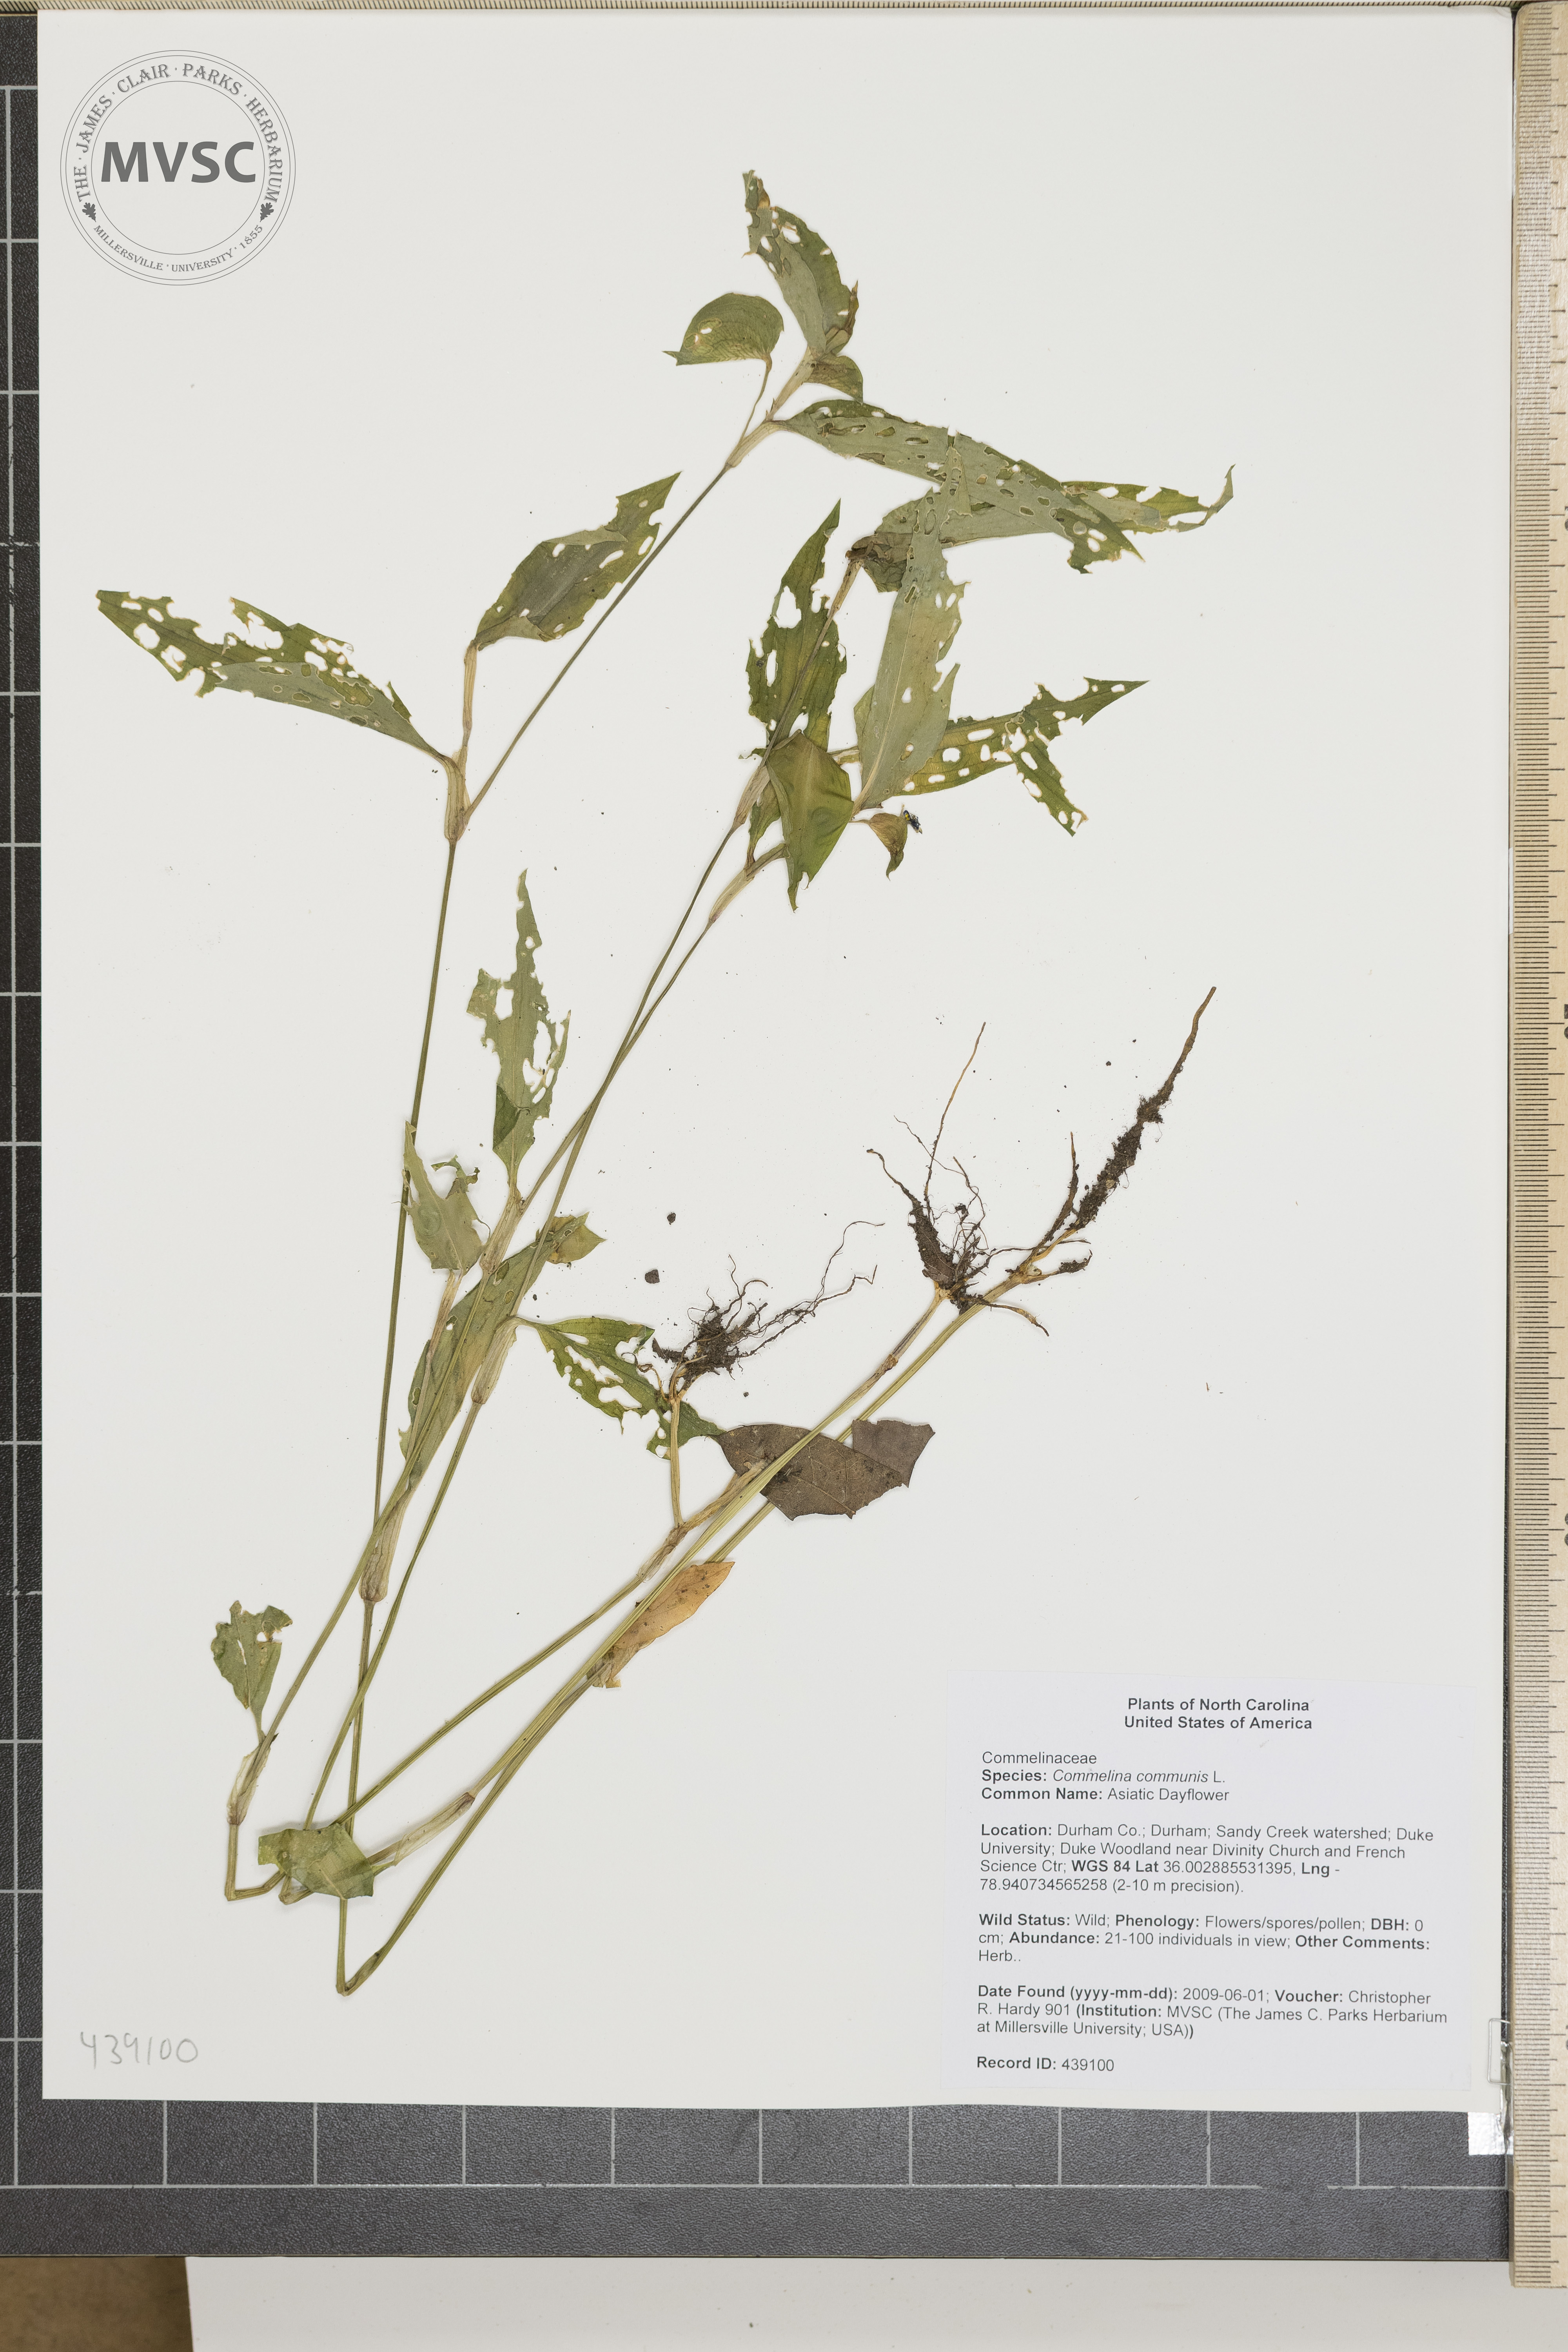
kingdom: Plantae
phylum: Tracheophyta
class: Liliopsida
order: Commelinales
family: Commelinaceae
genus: Commelina
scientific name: Commelina communis
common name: Asiatic Dayflower
